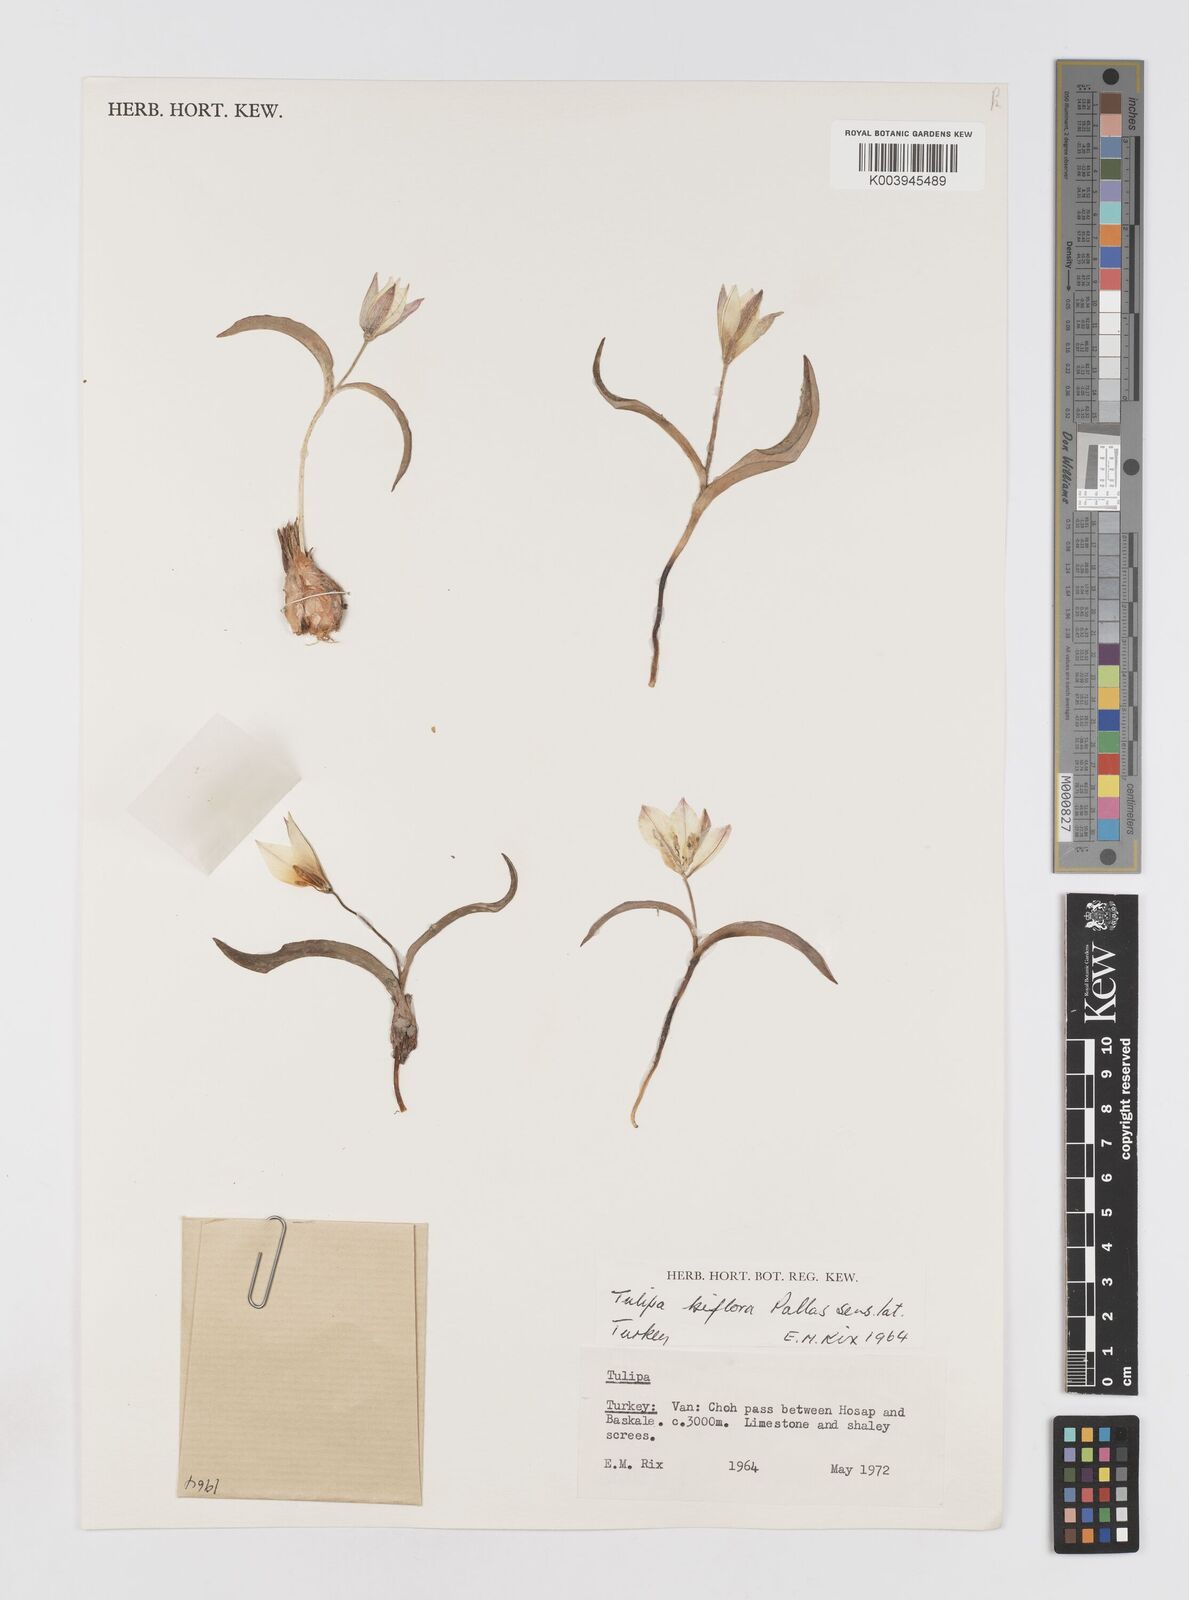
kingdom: Plantae
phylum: Tracheophyta
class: Liliopsida
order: Liliales
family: Liliaceae
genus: Tulipa
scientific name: Tulipa biflora
